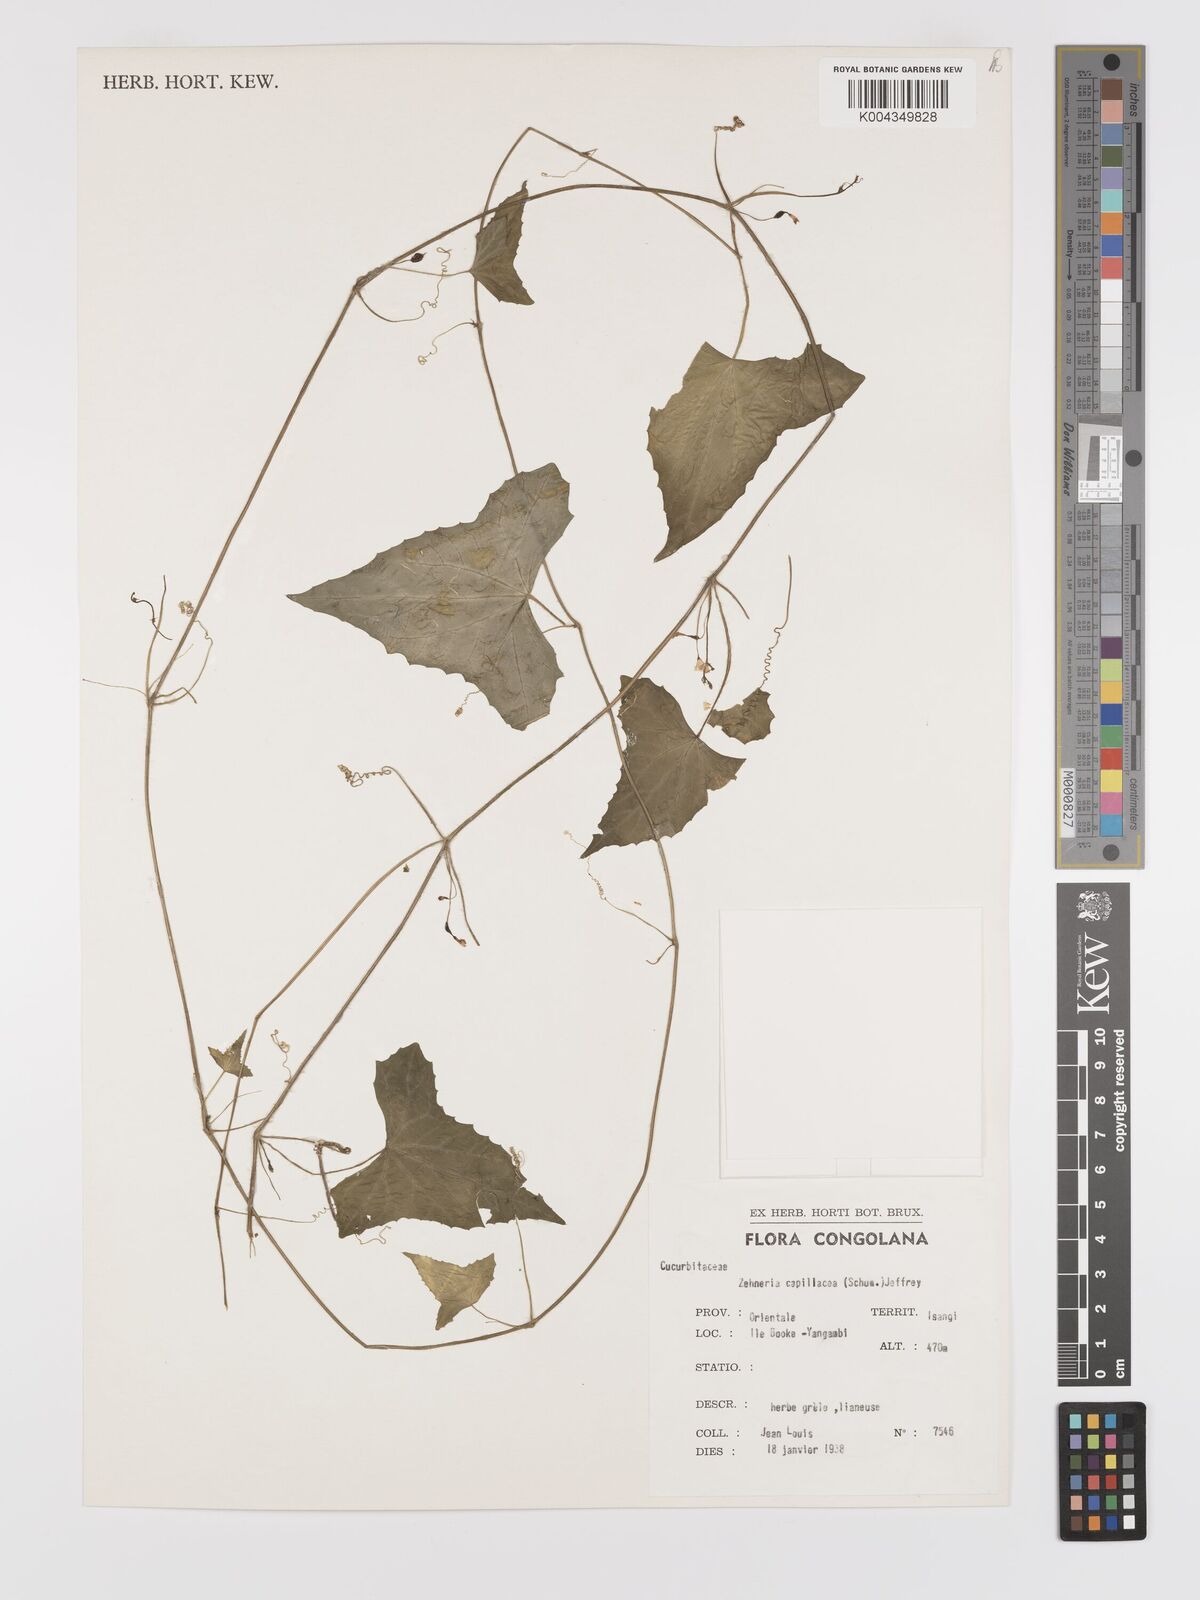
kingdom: Plantae
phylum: Tracheophyta
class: Magnoliopsida
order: Cucurbitales
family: Cucurbitaceae
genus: Zehneria
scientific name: Zehneria capillacea
